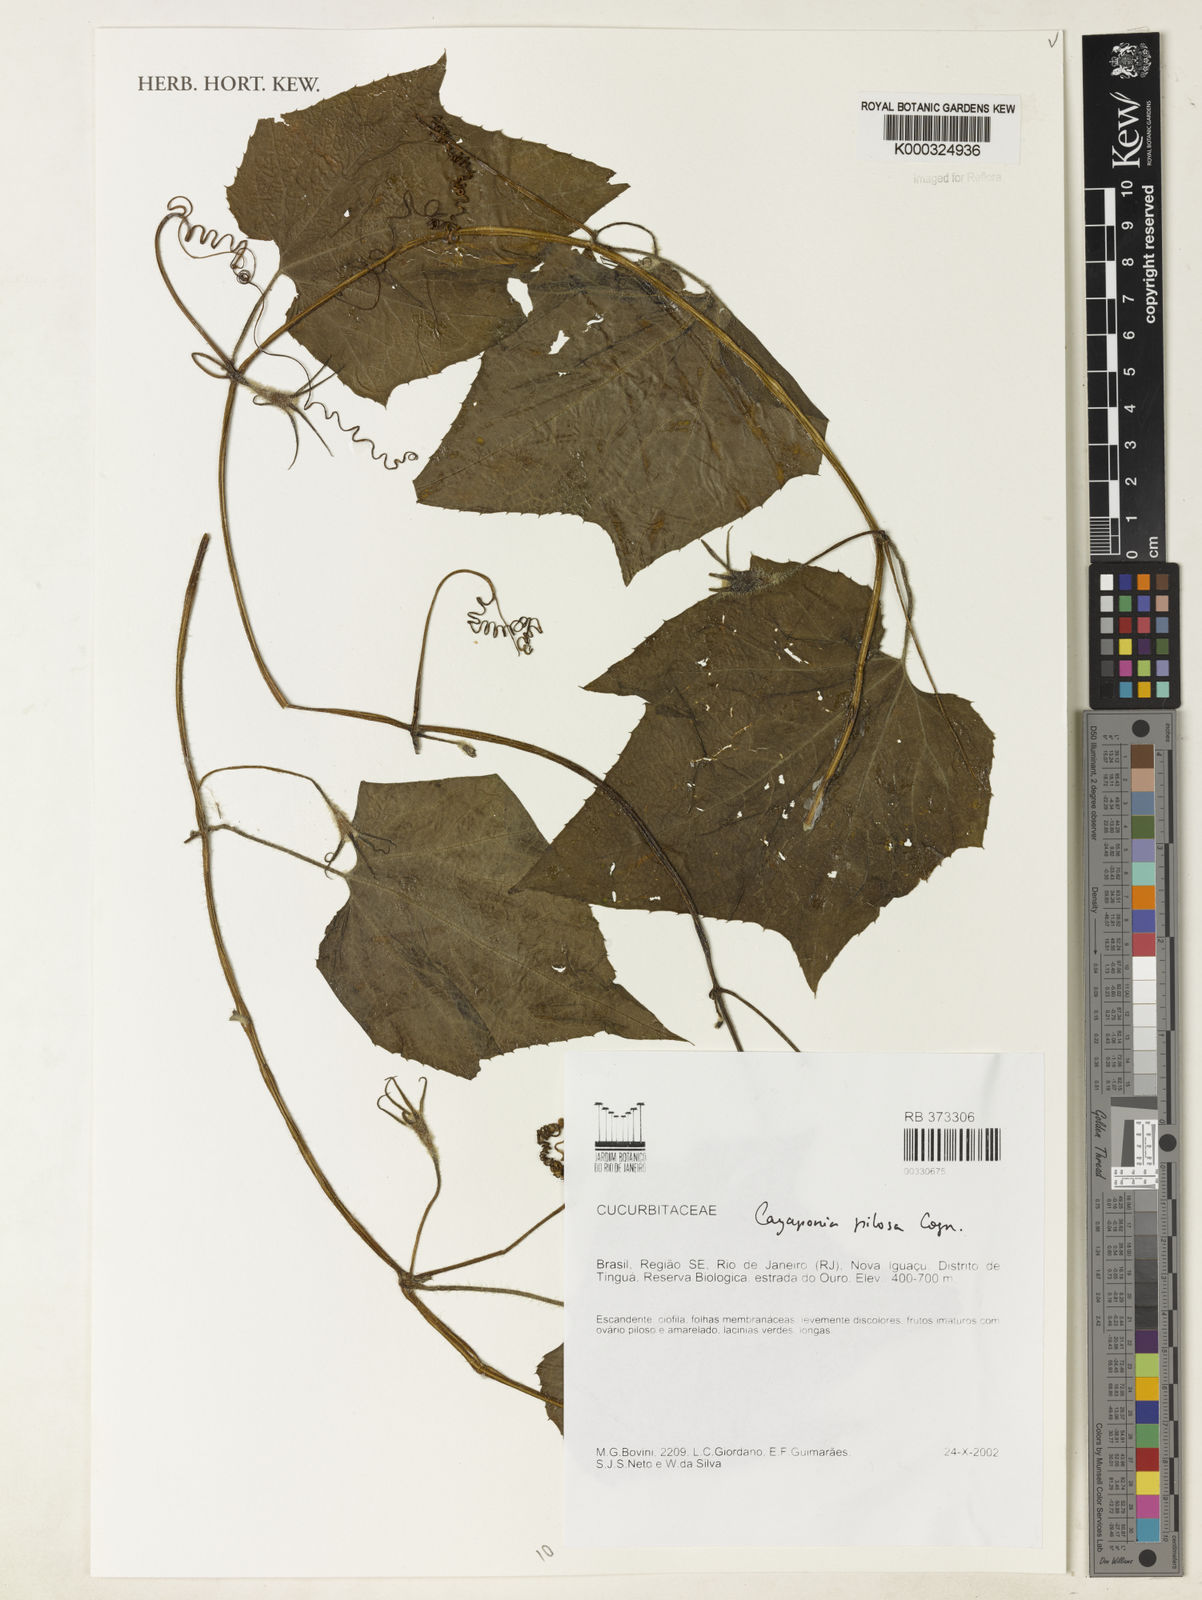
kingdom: Plantae
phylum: Tracheophyta
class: Magnoliopsida
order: Cucurbitales
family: Cucurbitaceae
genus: Cayaponia
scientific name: Cayaponia pilosa
